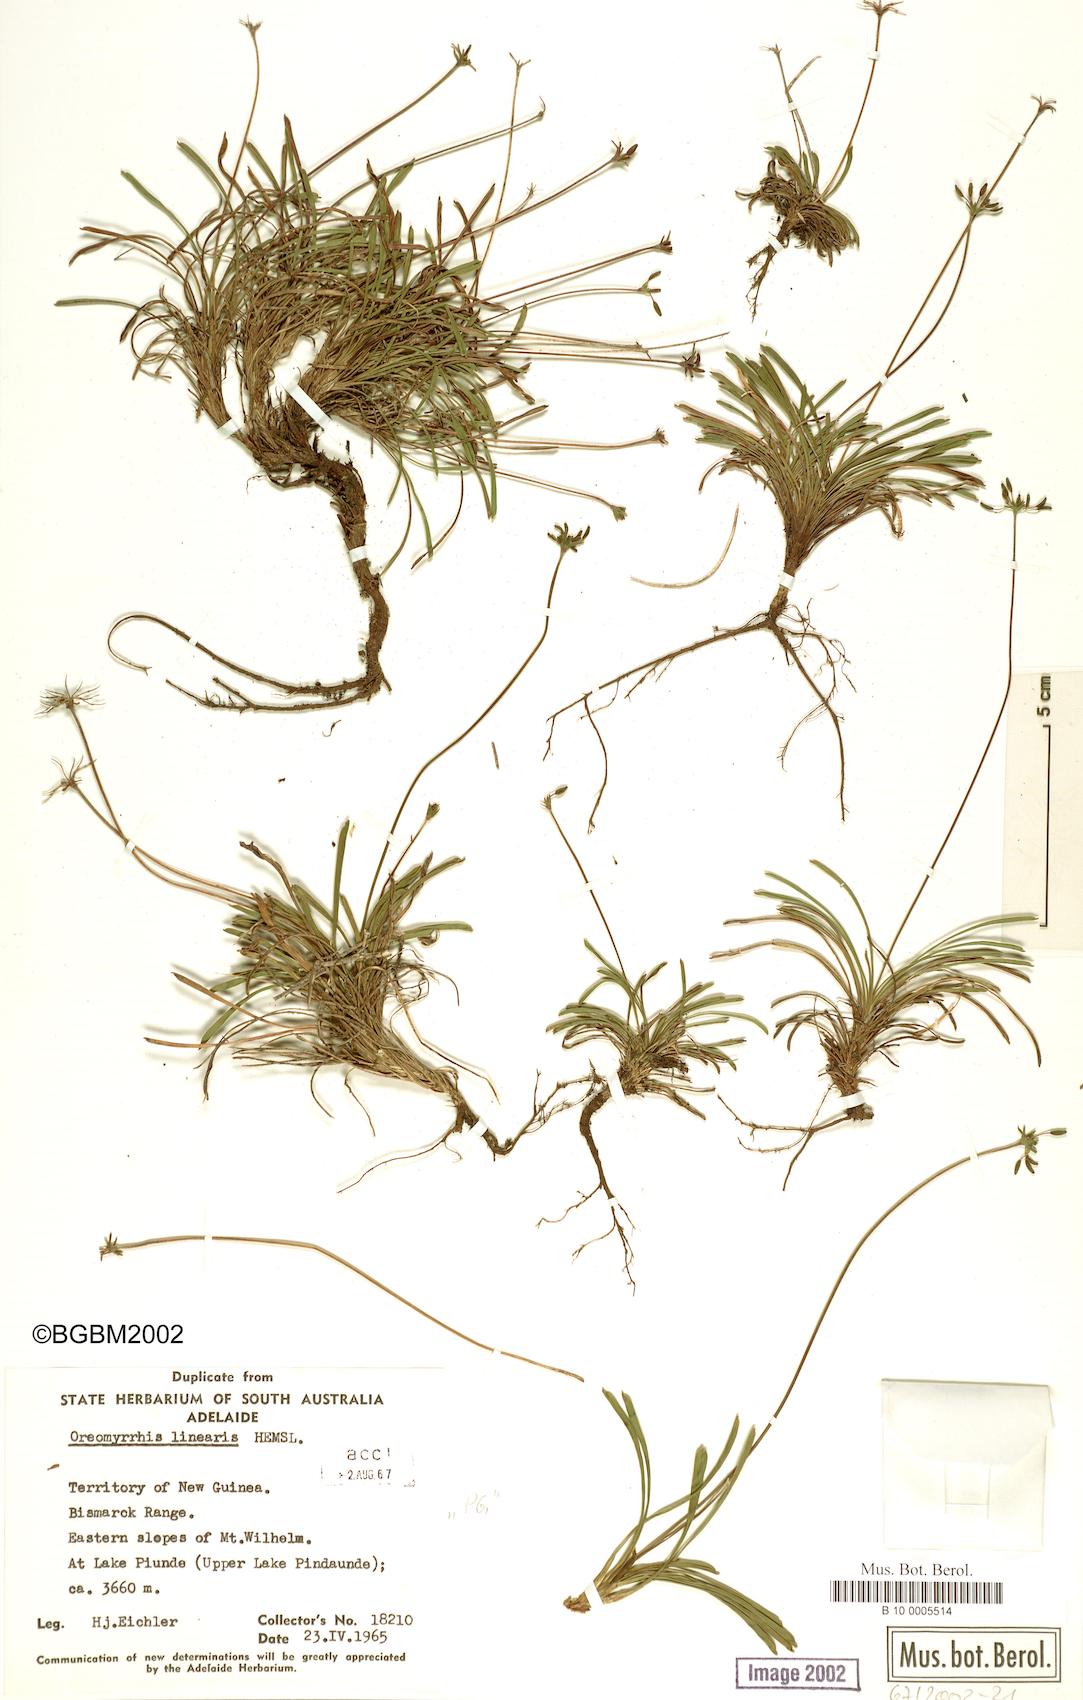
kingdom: Plantae
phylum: Tracheophyta
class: Magnoliopsida
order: Apiales
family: Apiaceae
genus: Chaerophyllum
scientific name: Chaerophyllum lineare
